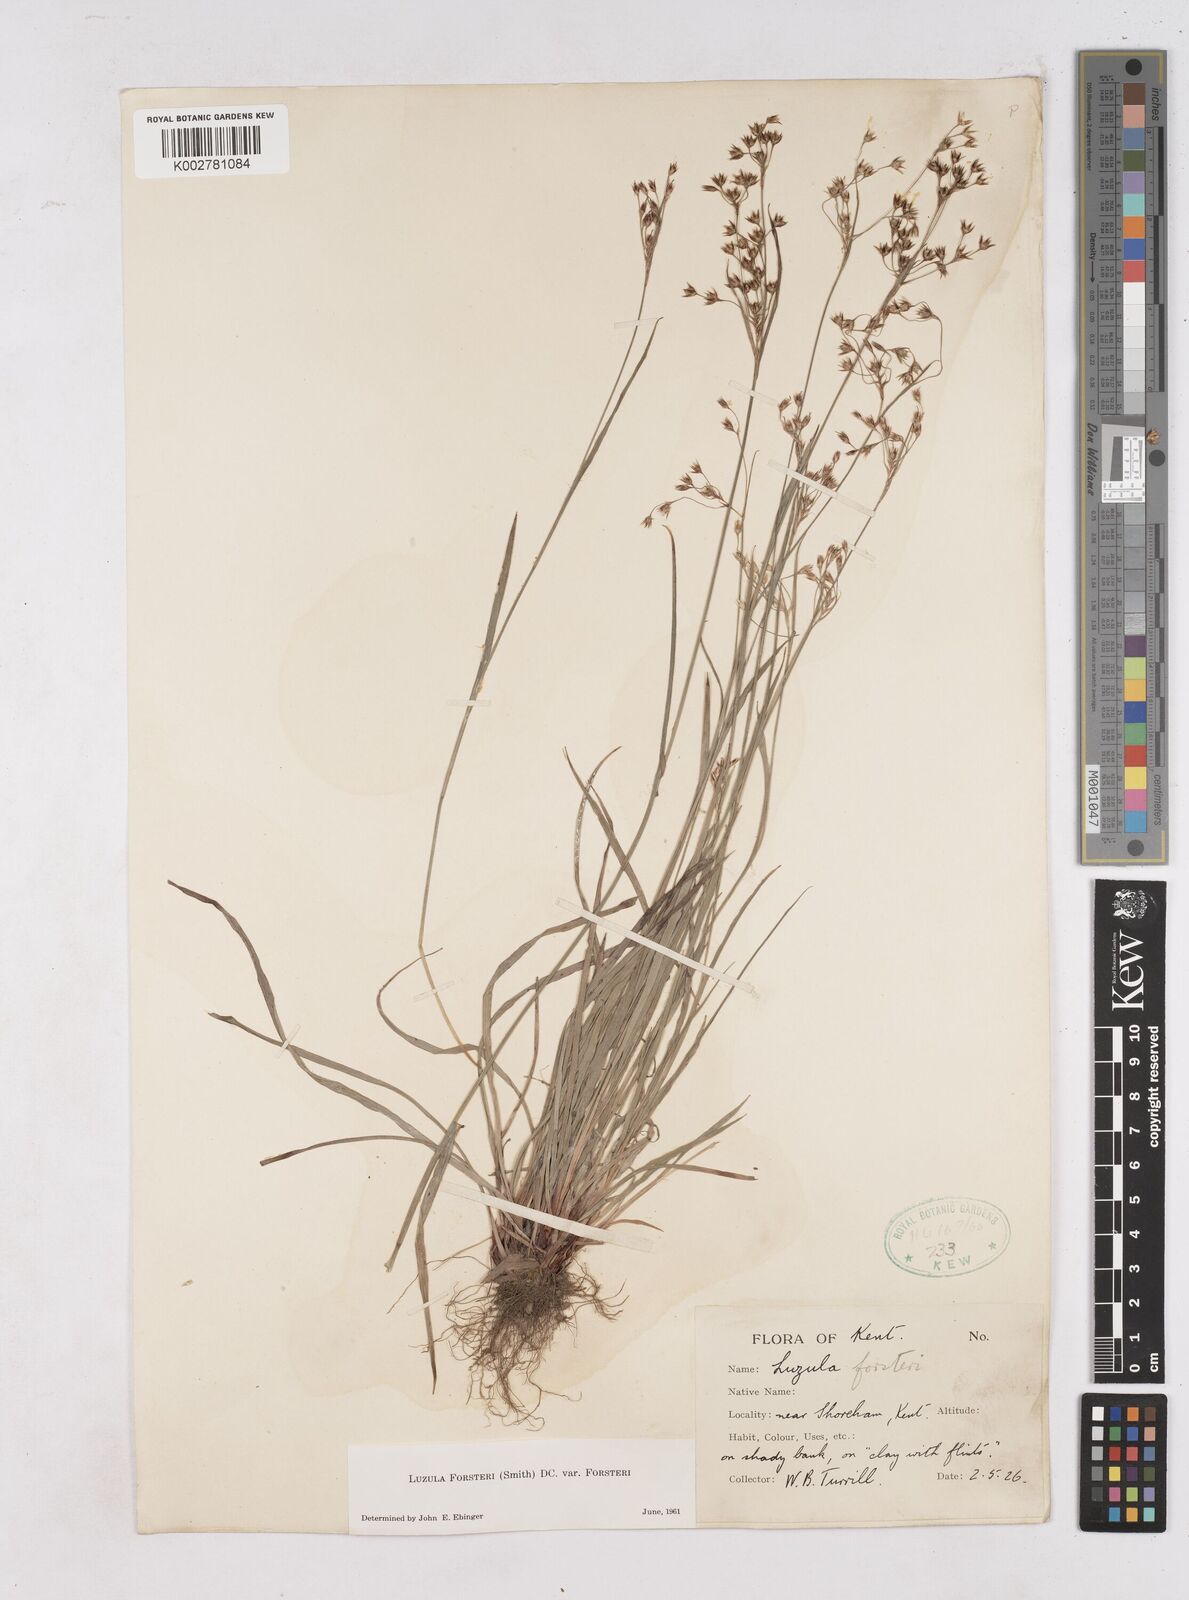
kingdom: Plantae
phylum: Tracheophyta
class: Liliopsida
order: Poales
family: Juncaceae
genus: Luzula
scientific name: Luzula forsteri
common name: Southern wood-rush
